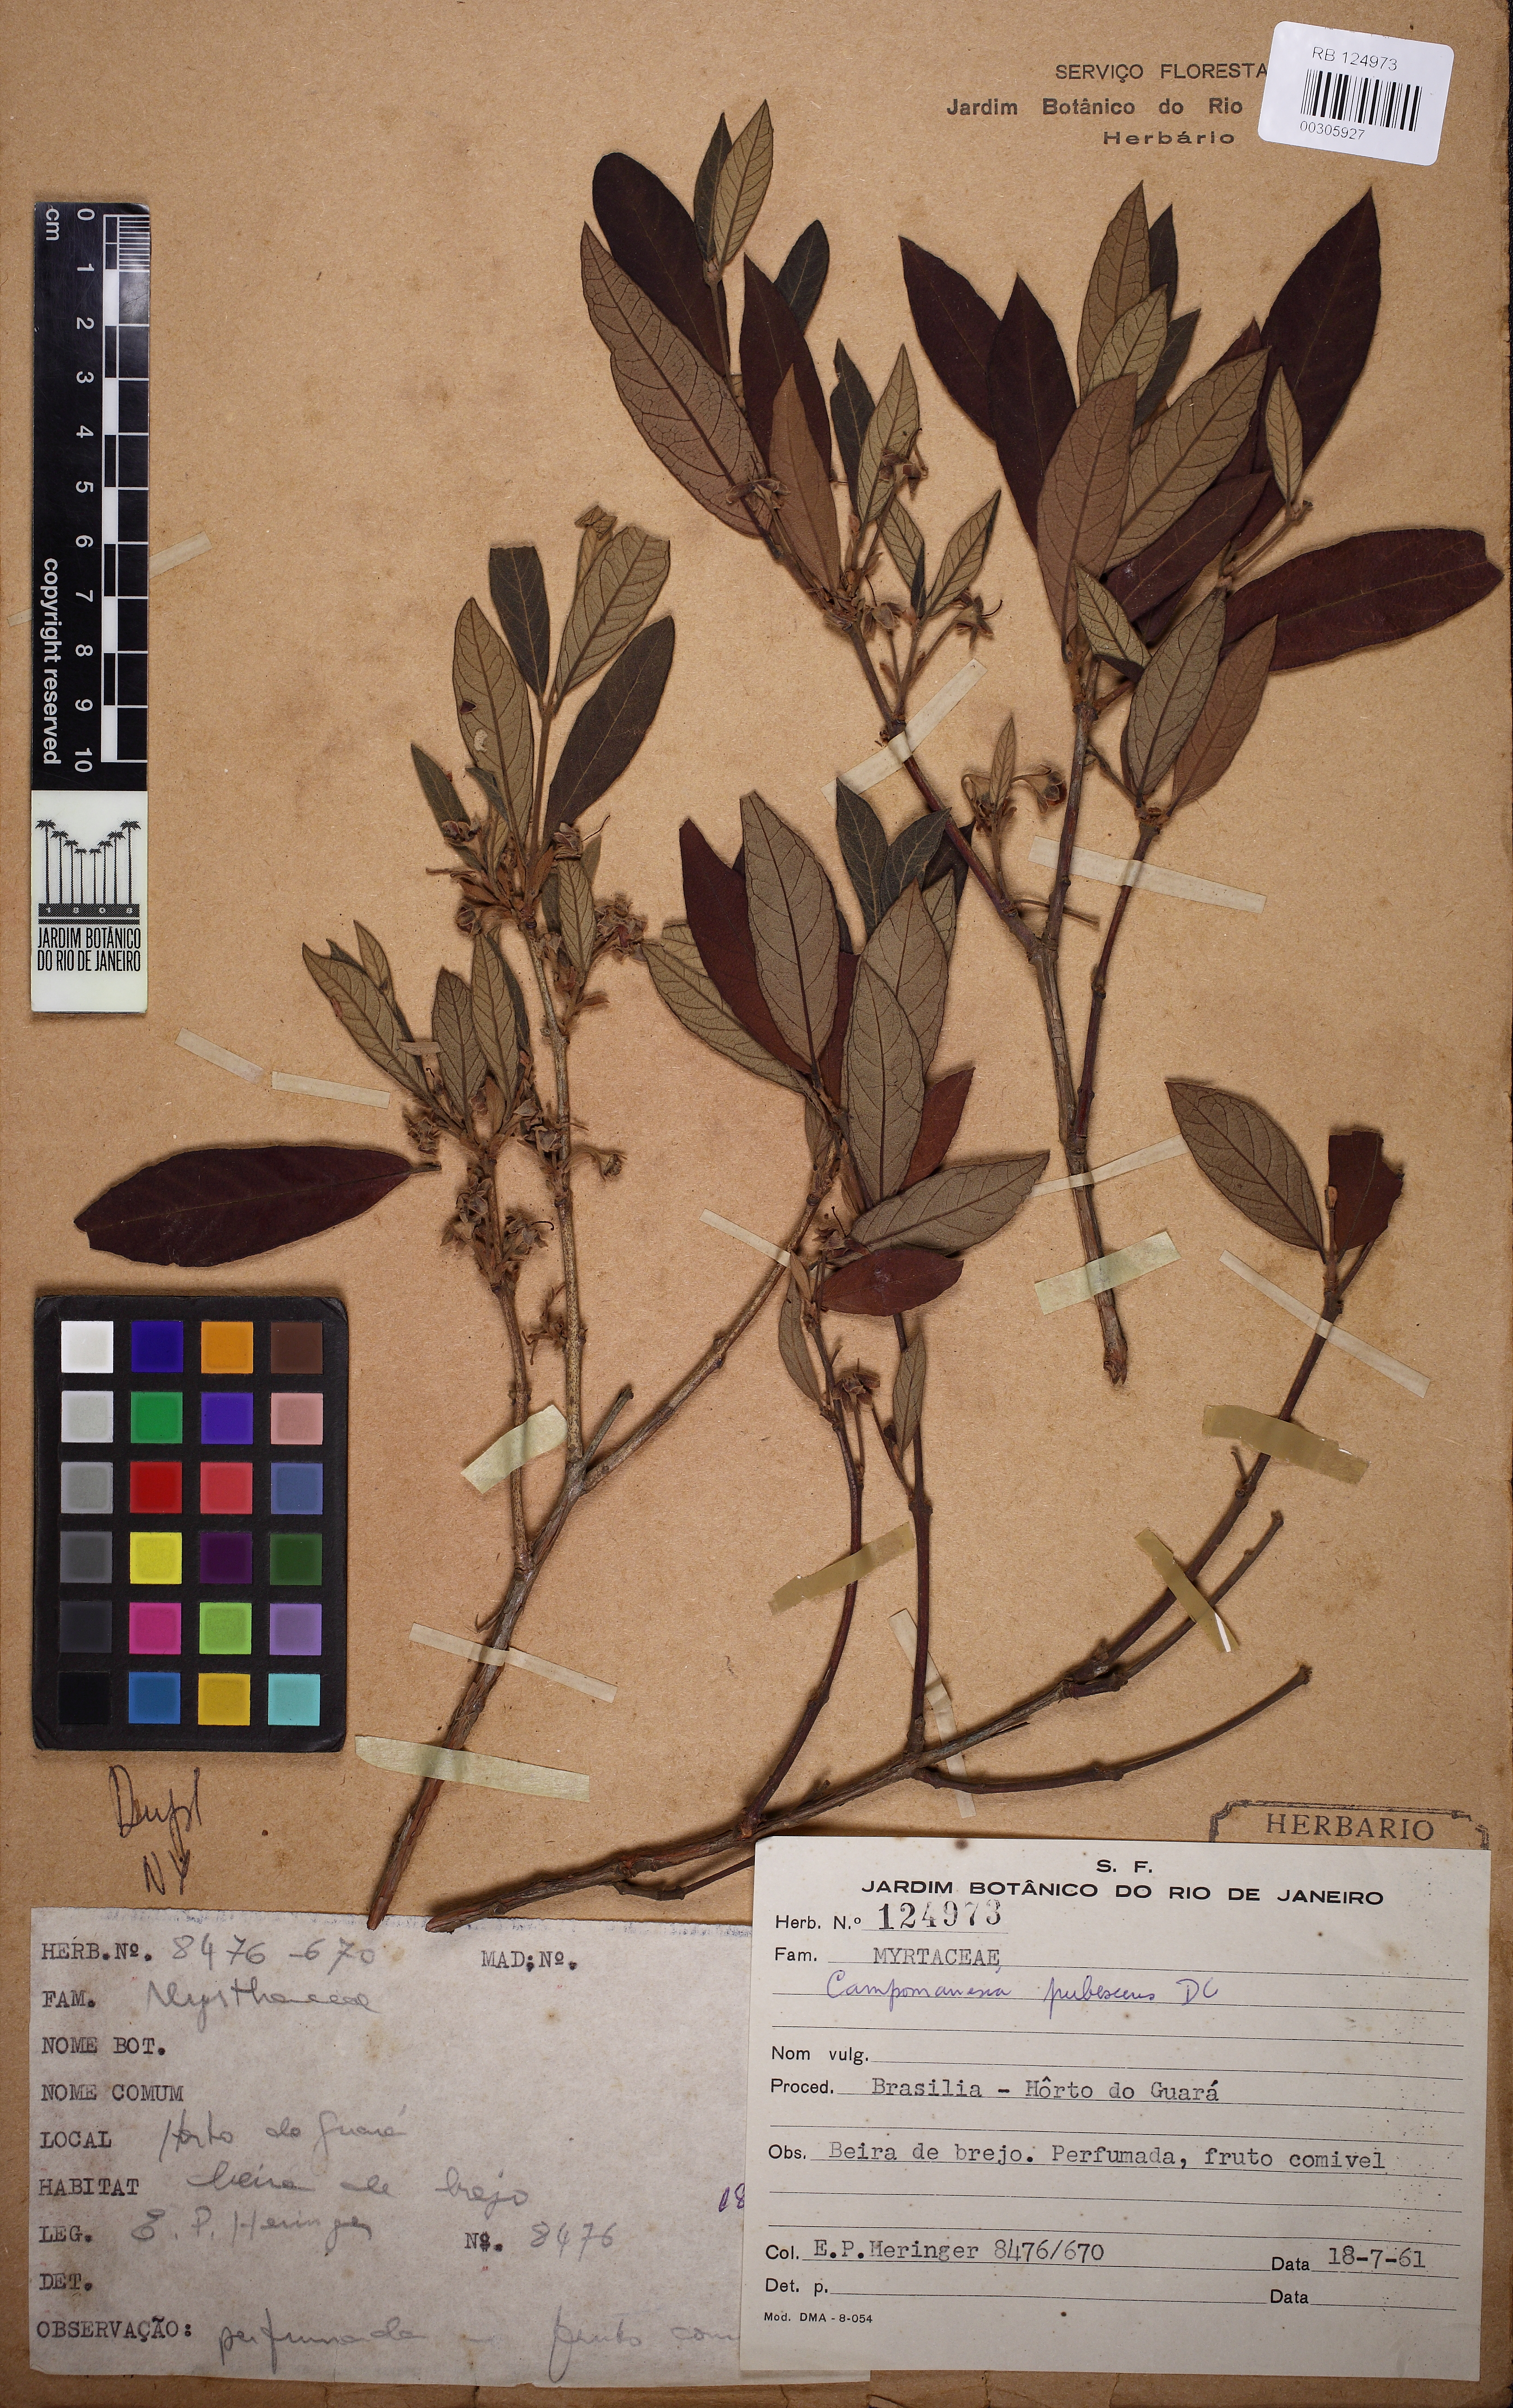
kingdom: Plantae
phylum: Tracheophyta
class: Magnoliopsida
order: Myrtales
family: Myrtaceae
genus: Campomanesia
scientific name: Campomanesia pubescens
